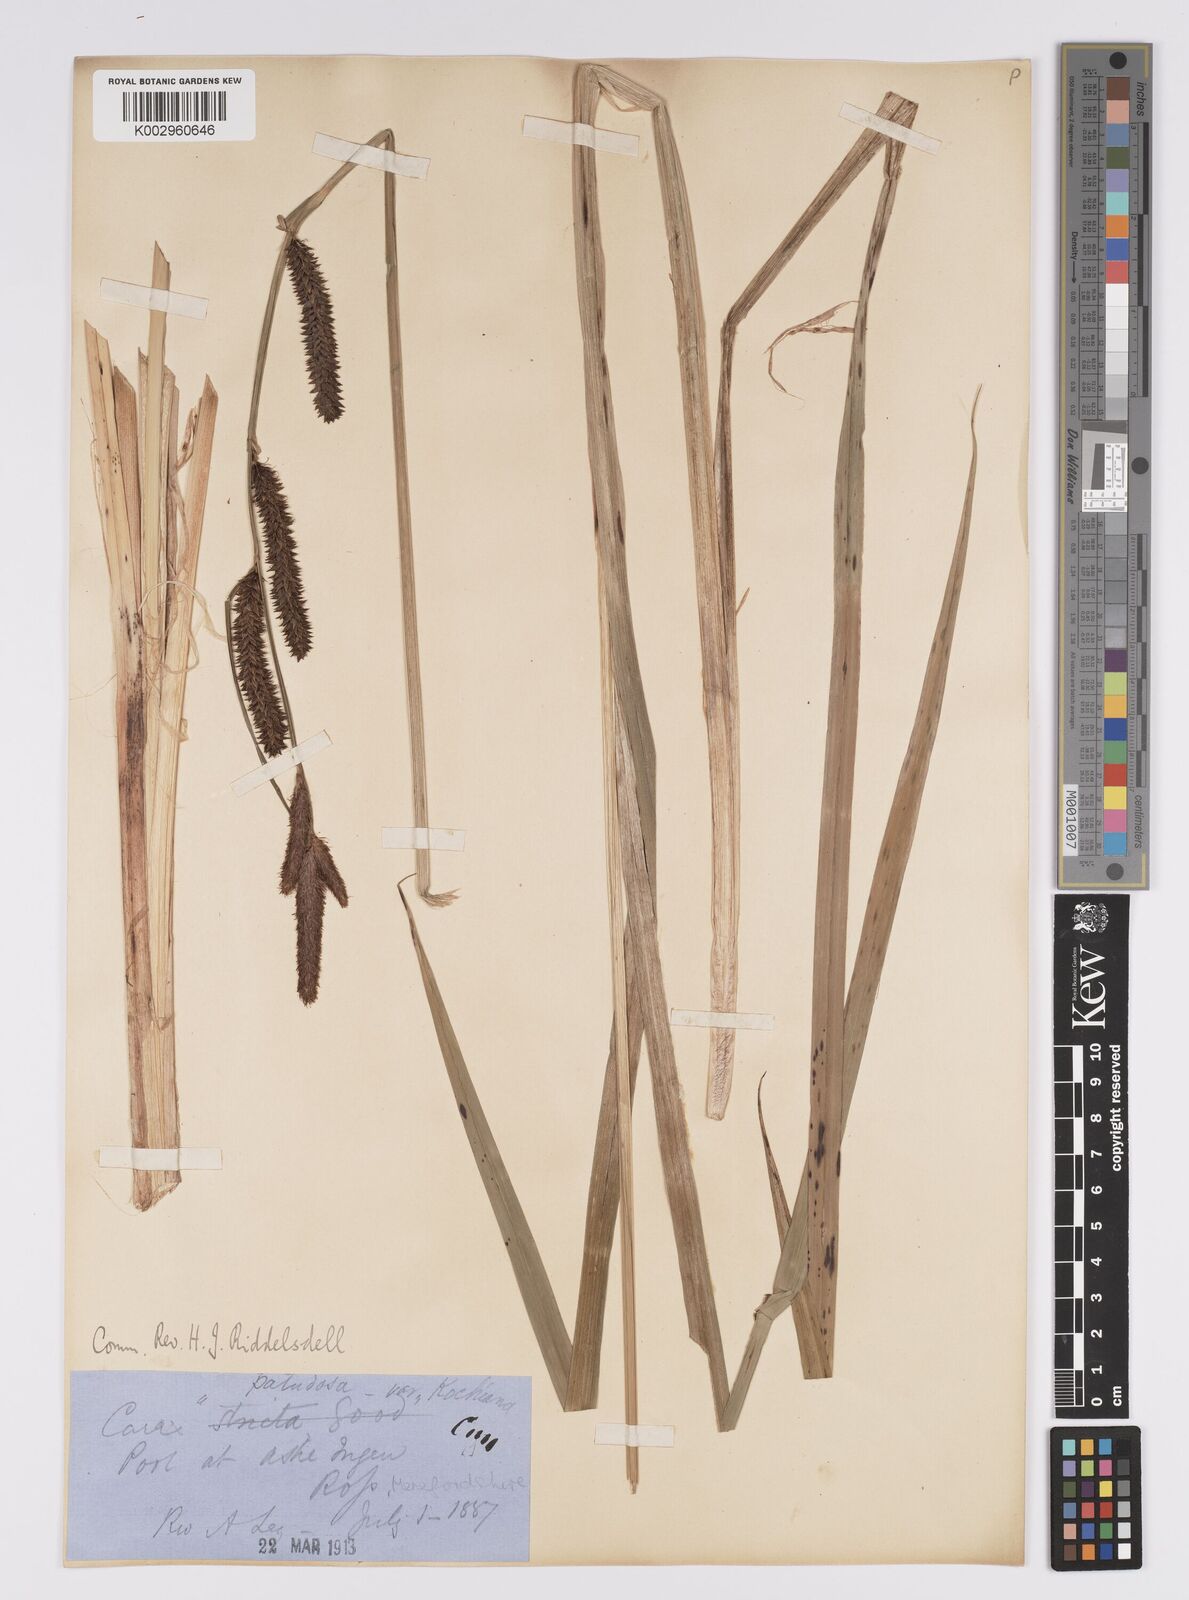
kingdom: Plantae
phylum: Tracheophyta
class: Liliopsida
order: Poales
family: Cyperaceae
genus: Carex
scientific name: Carex
